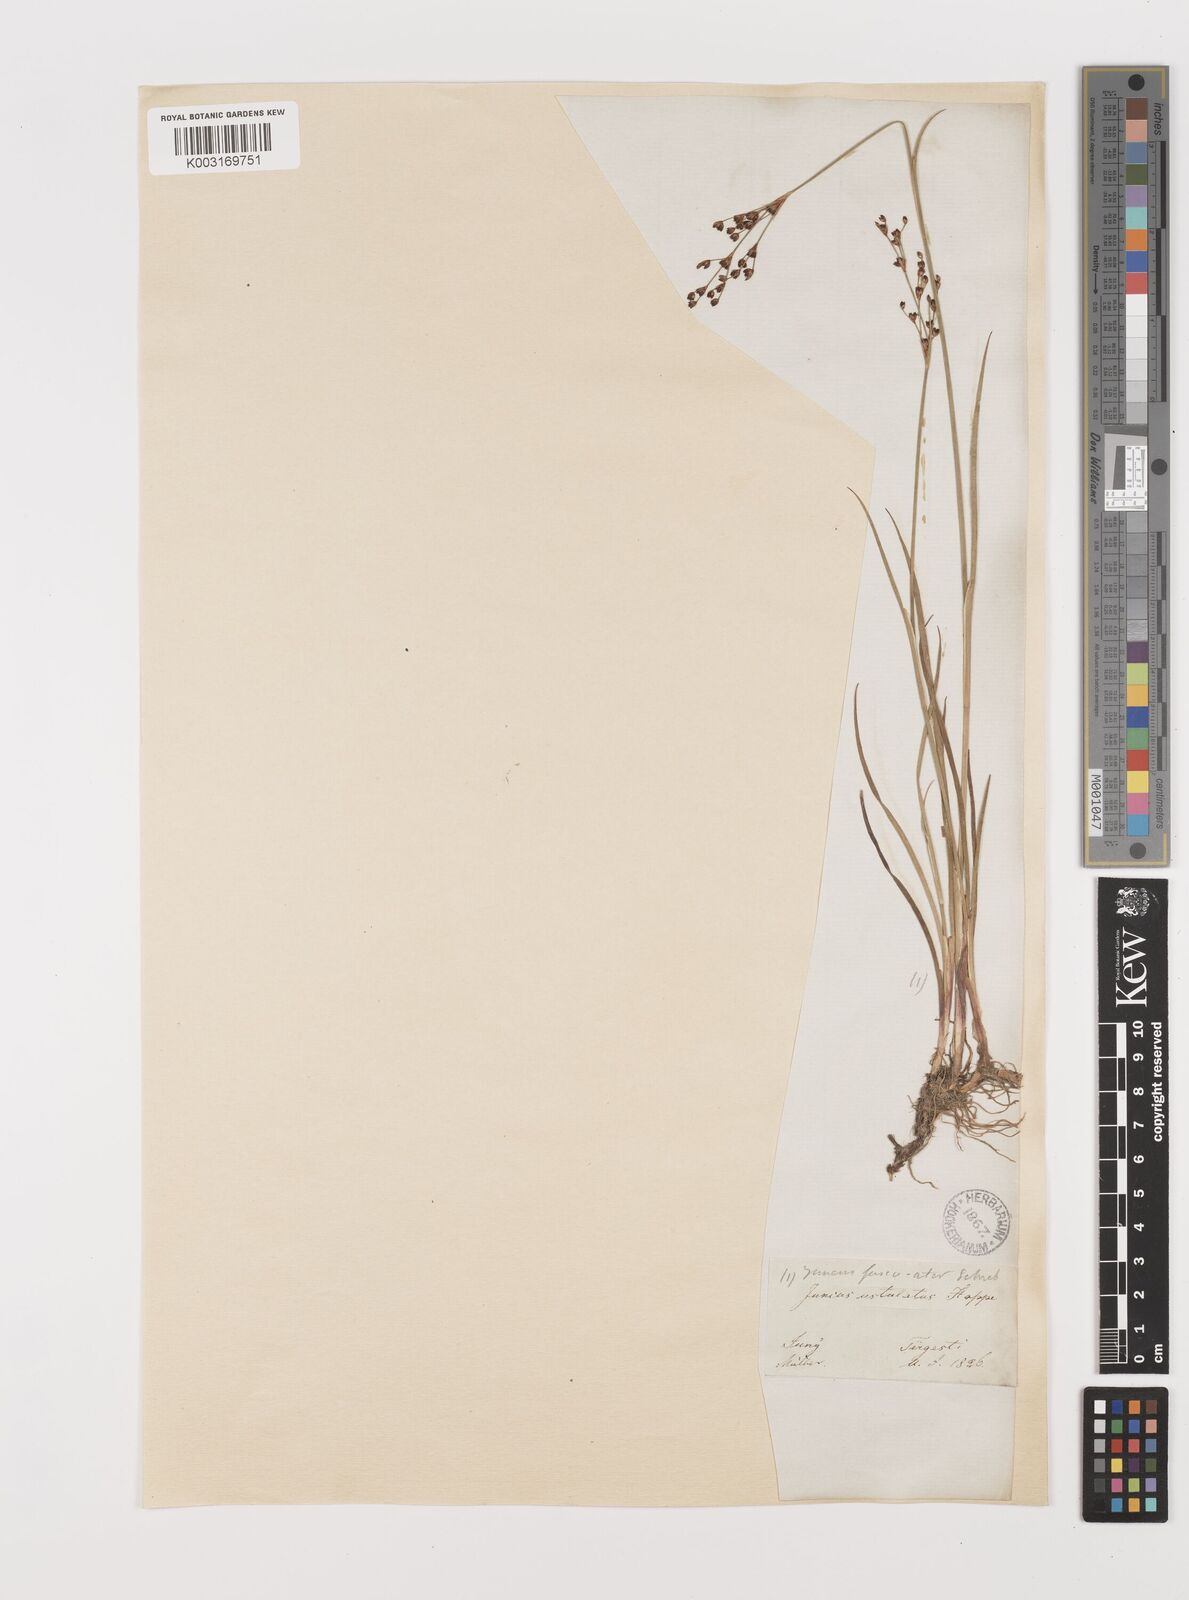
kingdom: Plantae
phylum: Tracheophyta
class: Liliopsida
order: Poales
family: Juncaceae
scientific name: Juncaceae
